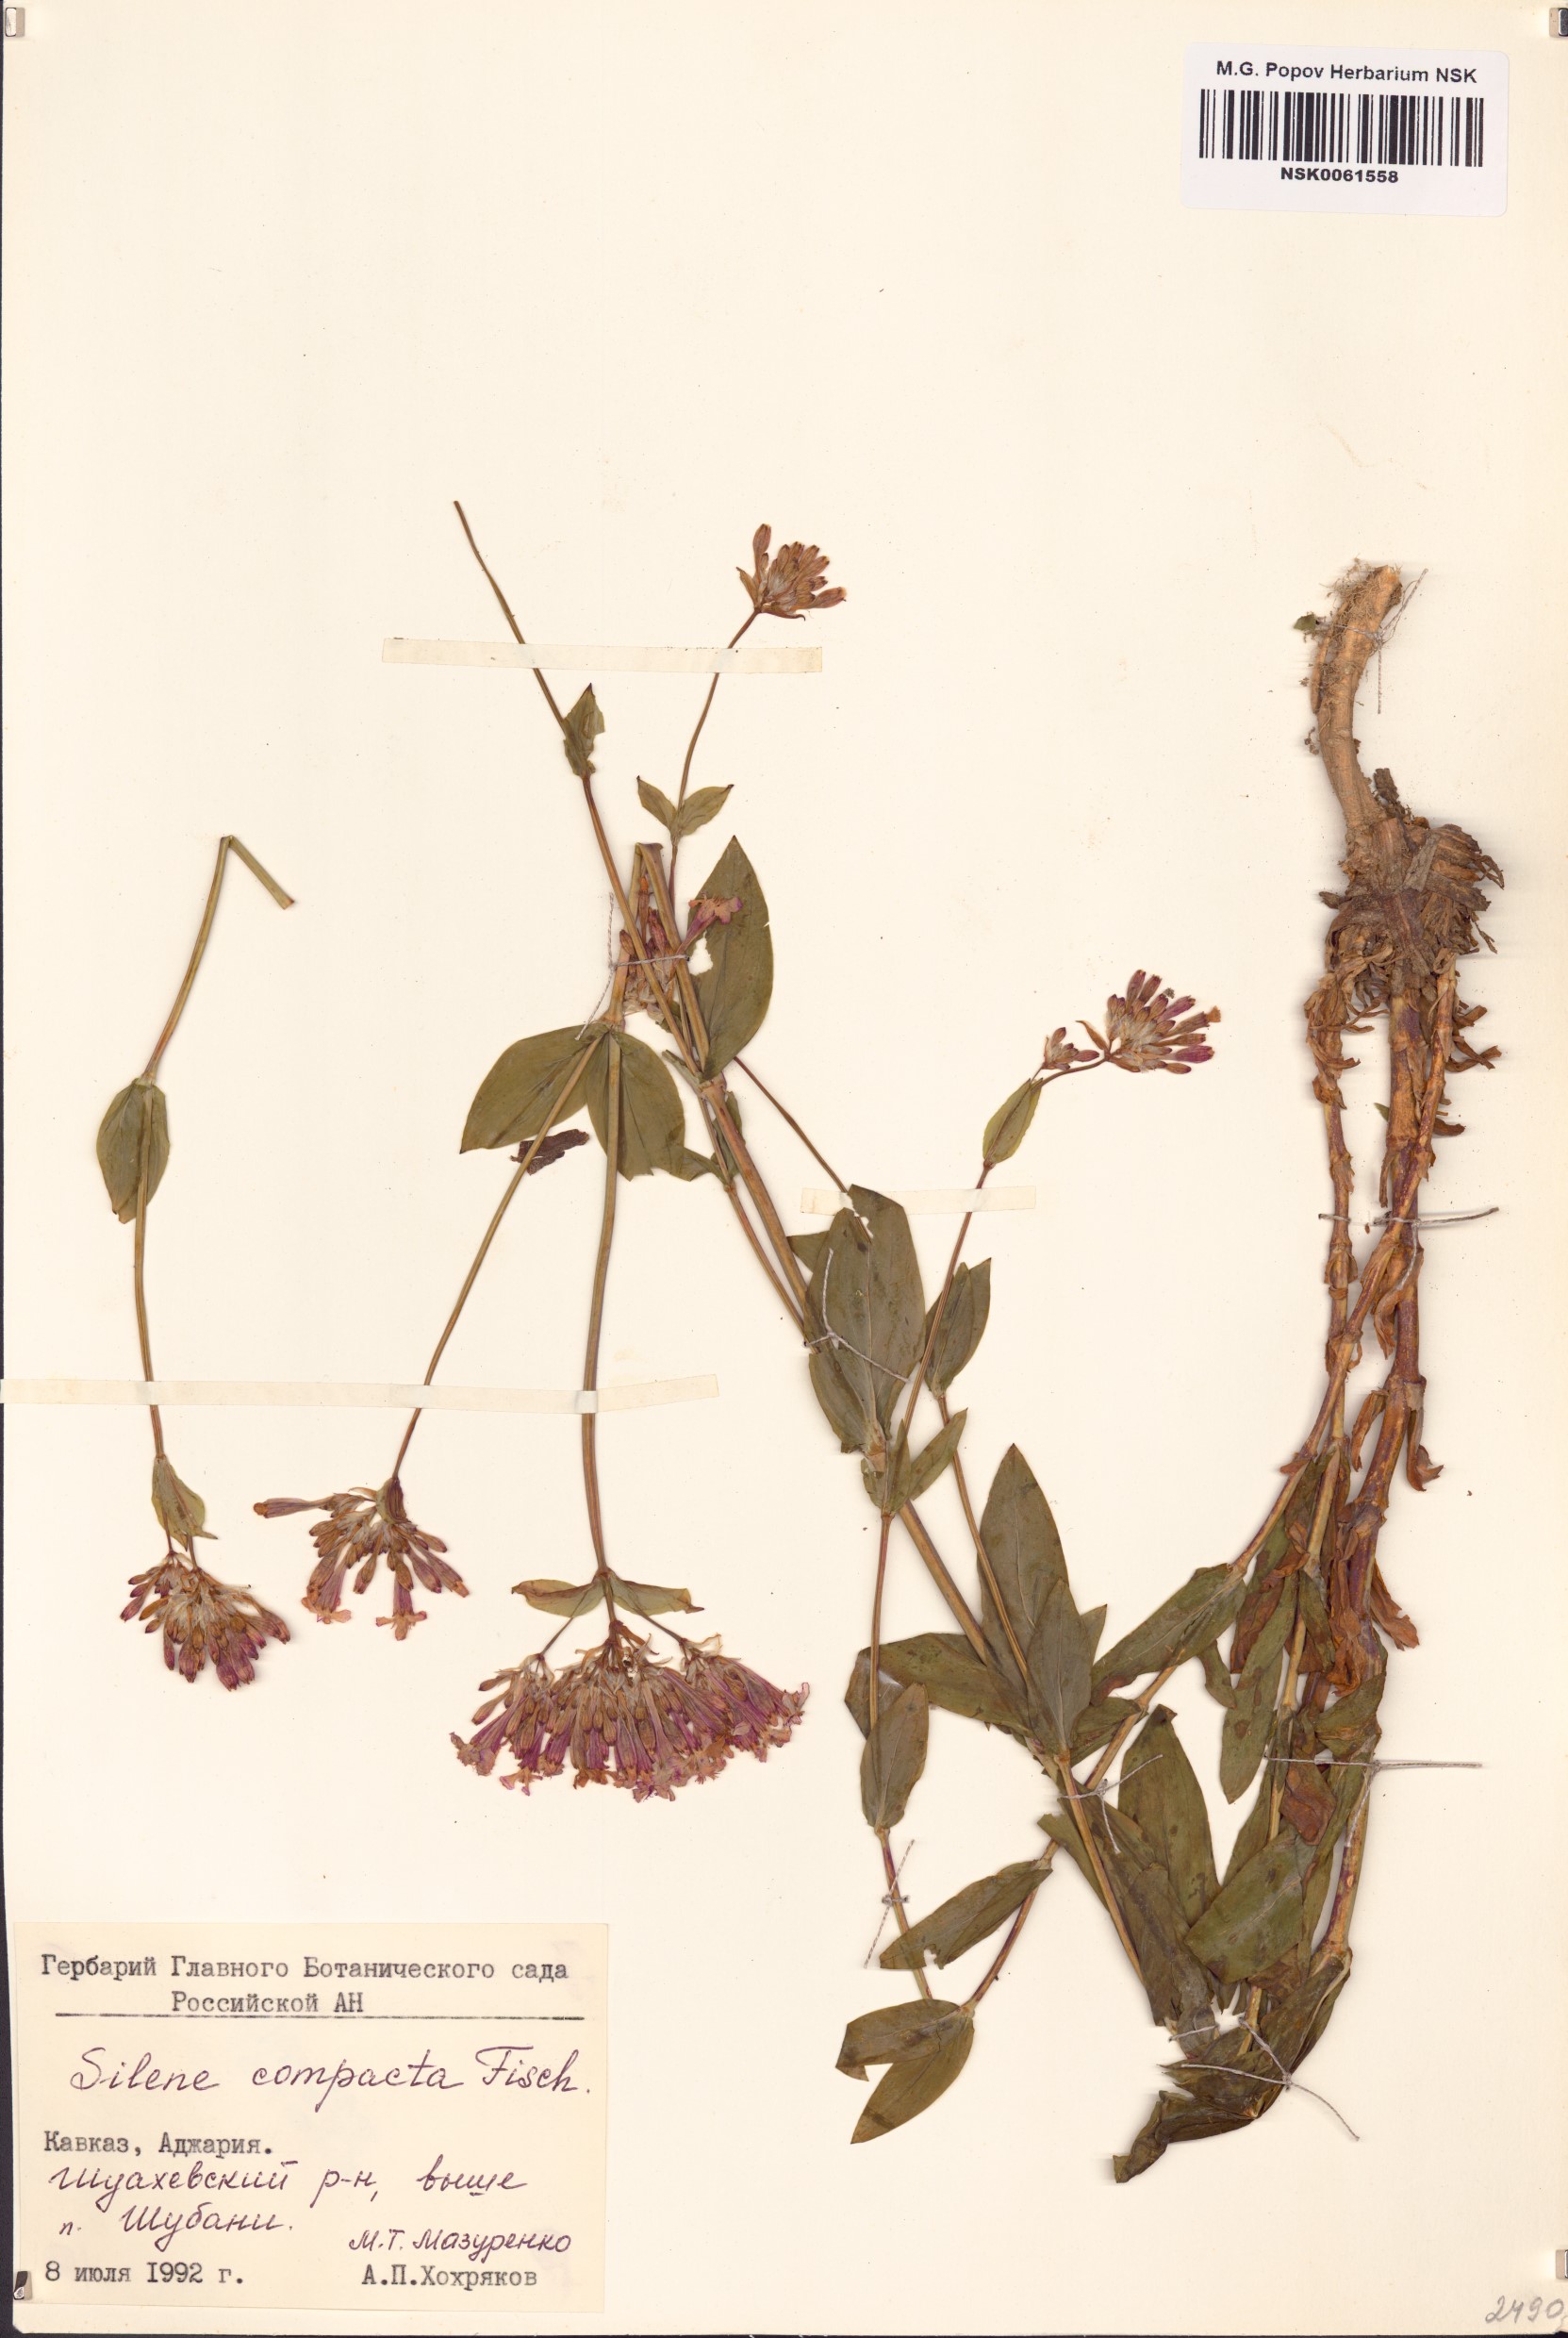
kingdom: Plantae
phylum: Tracheophyta
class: Magnoliopsida
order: Caryophyllales
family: Caryophyllaceae
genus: Atocion
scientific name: Atocion compactum
